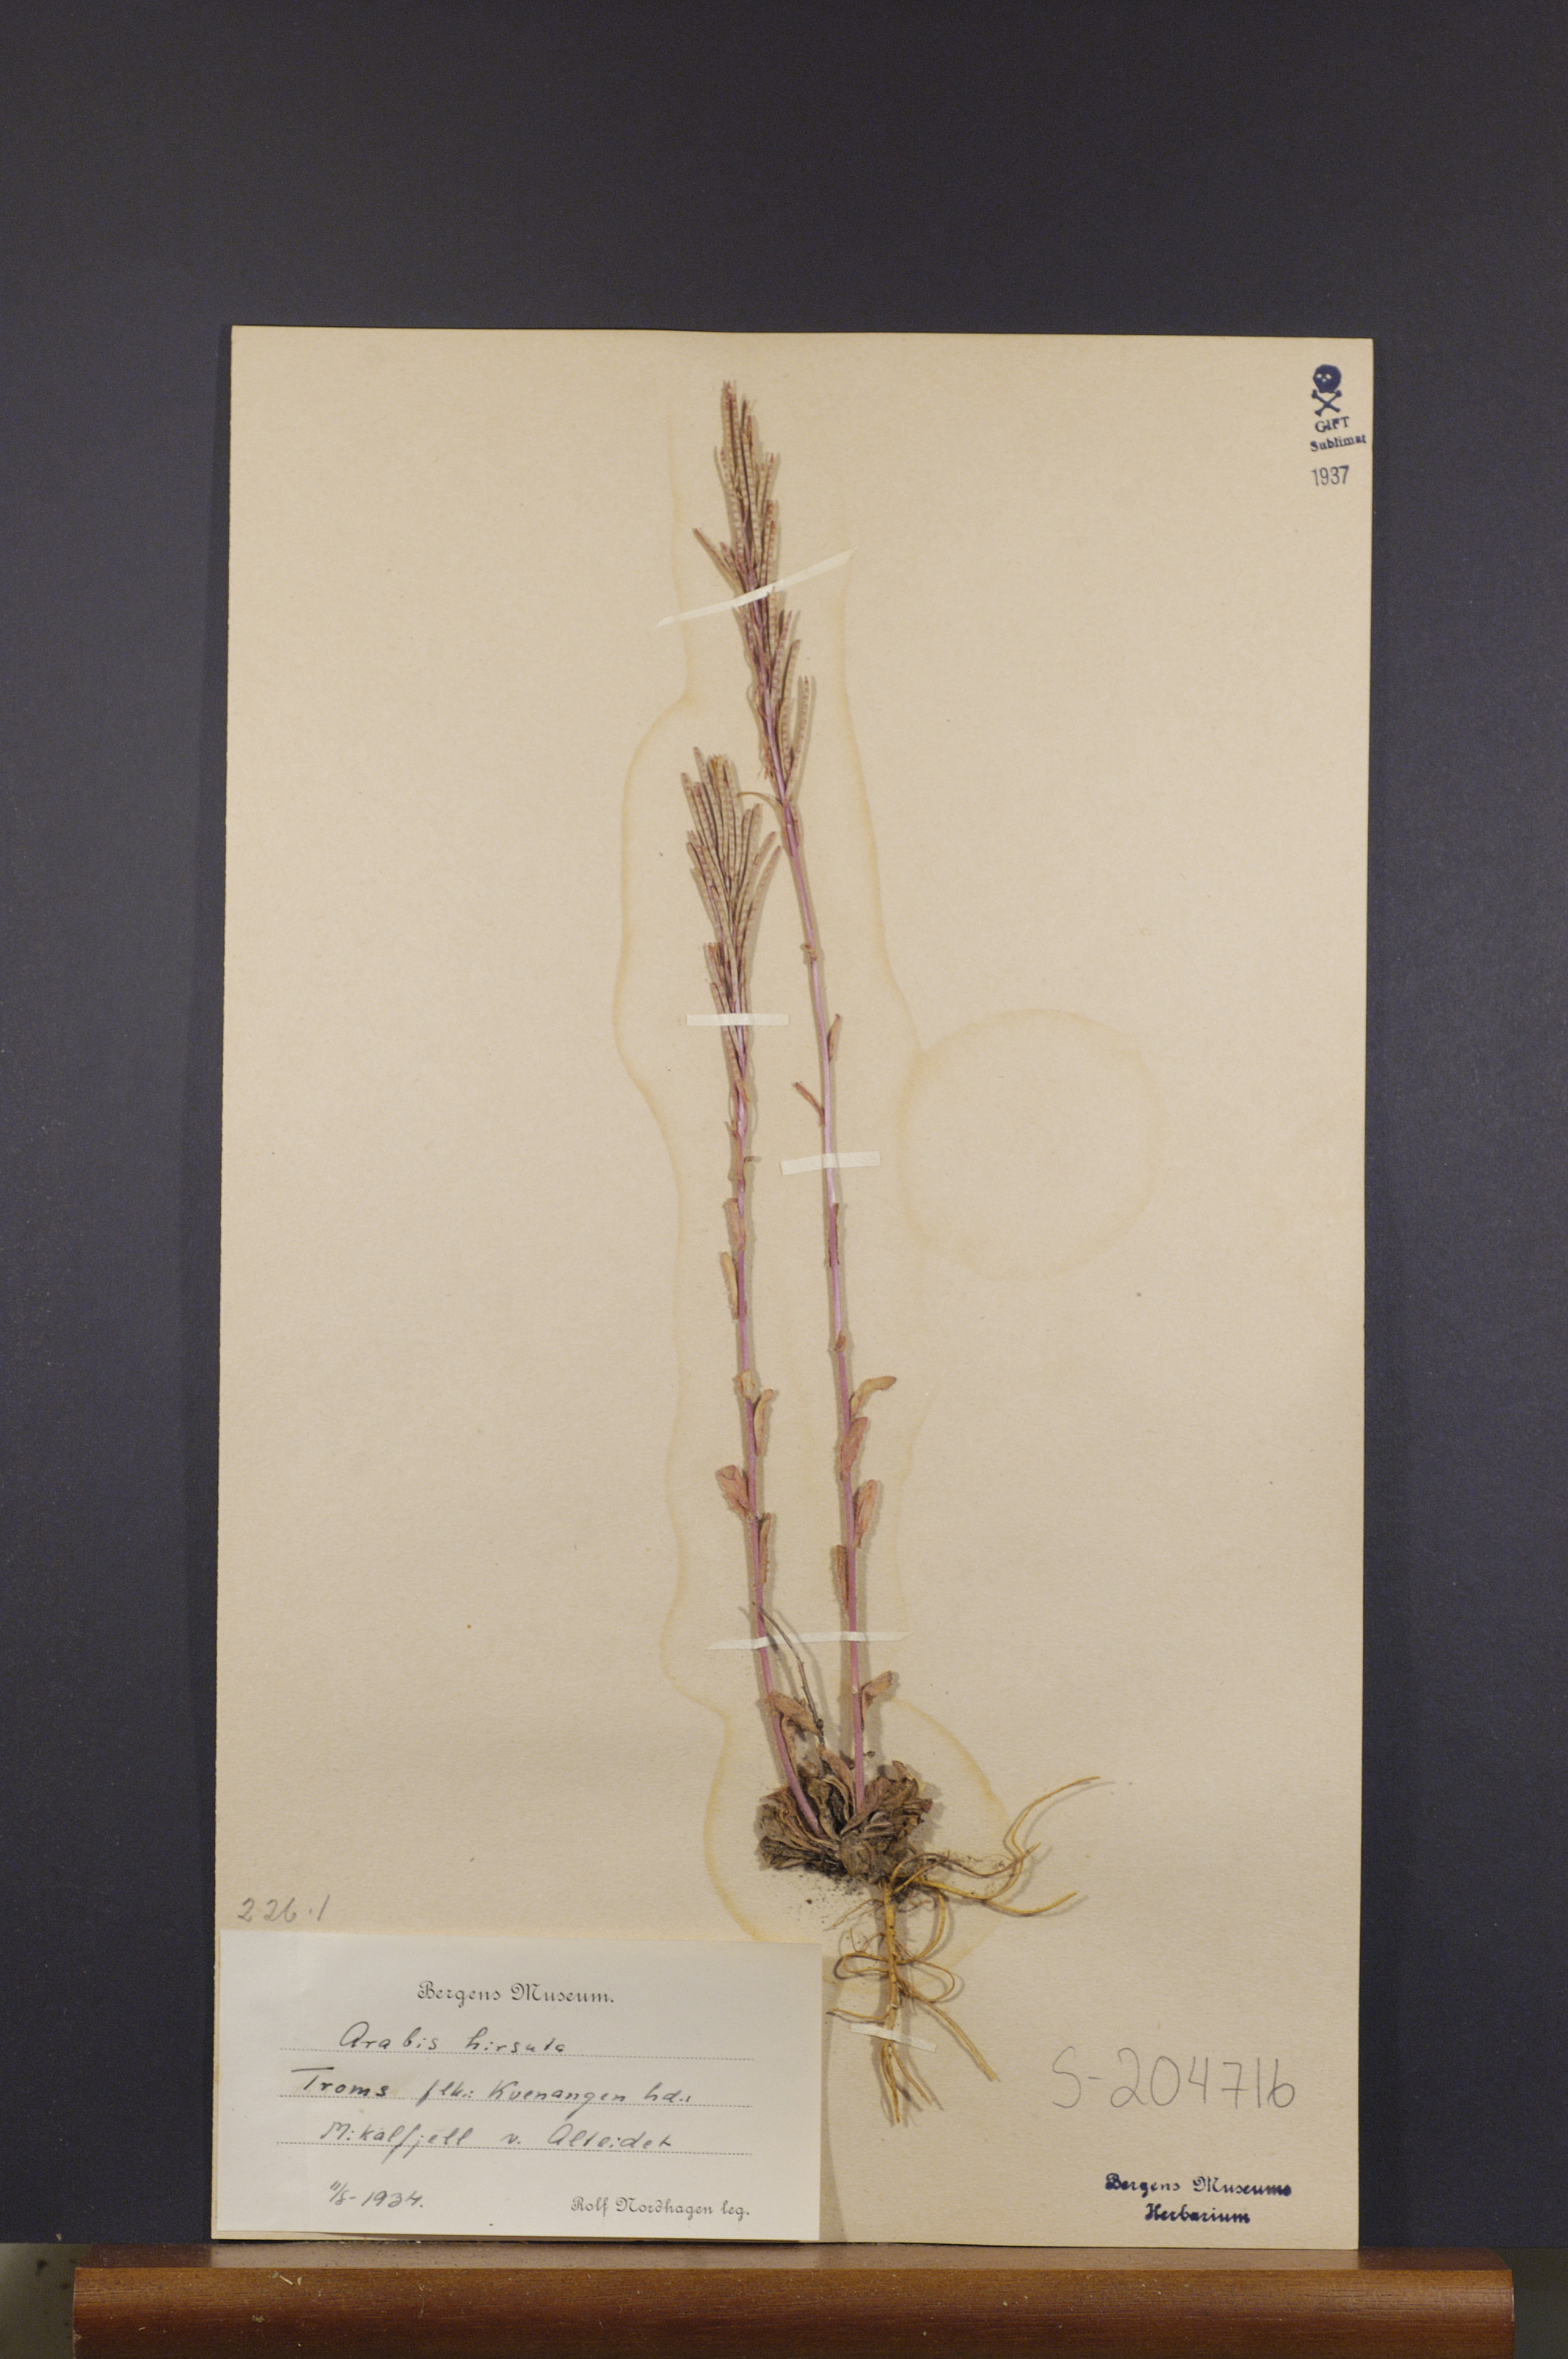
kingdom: Plantae
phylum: Tracheophyta
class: Magnoliopsida
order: Brassicales
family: Brassicaceae
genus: Arabis
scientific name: Arabis hirsuta
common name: Hairy rock-cress
